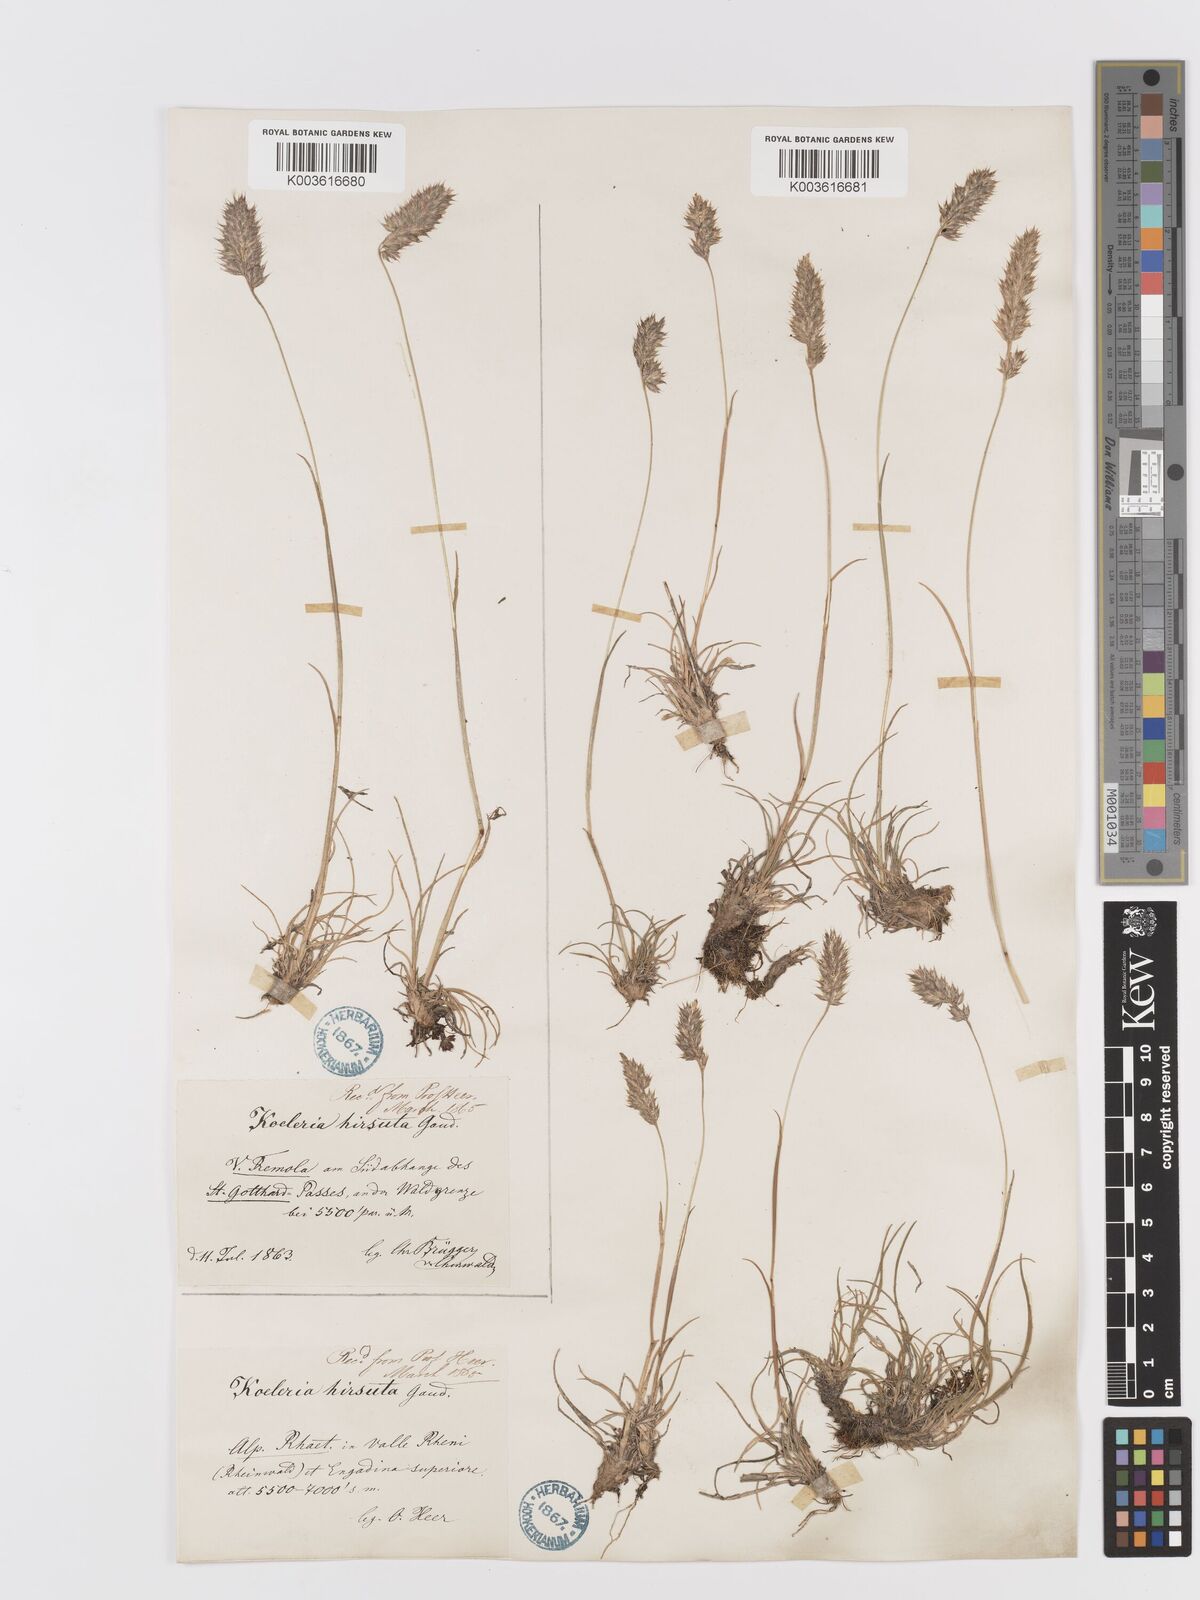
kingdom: Plantae
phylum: Tracheophyta
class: Liliopsida
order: Poales
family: Poaceae
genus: Koeleria
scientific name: Koeleria hirsuta
